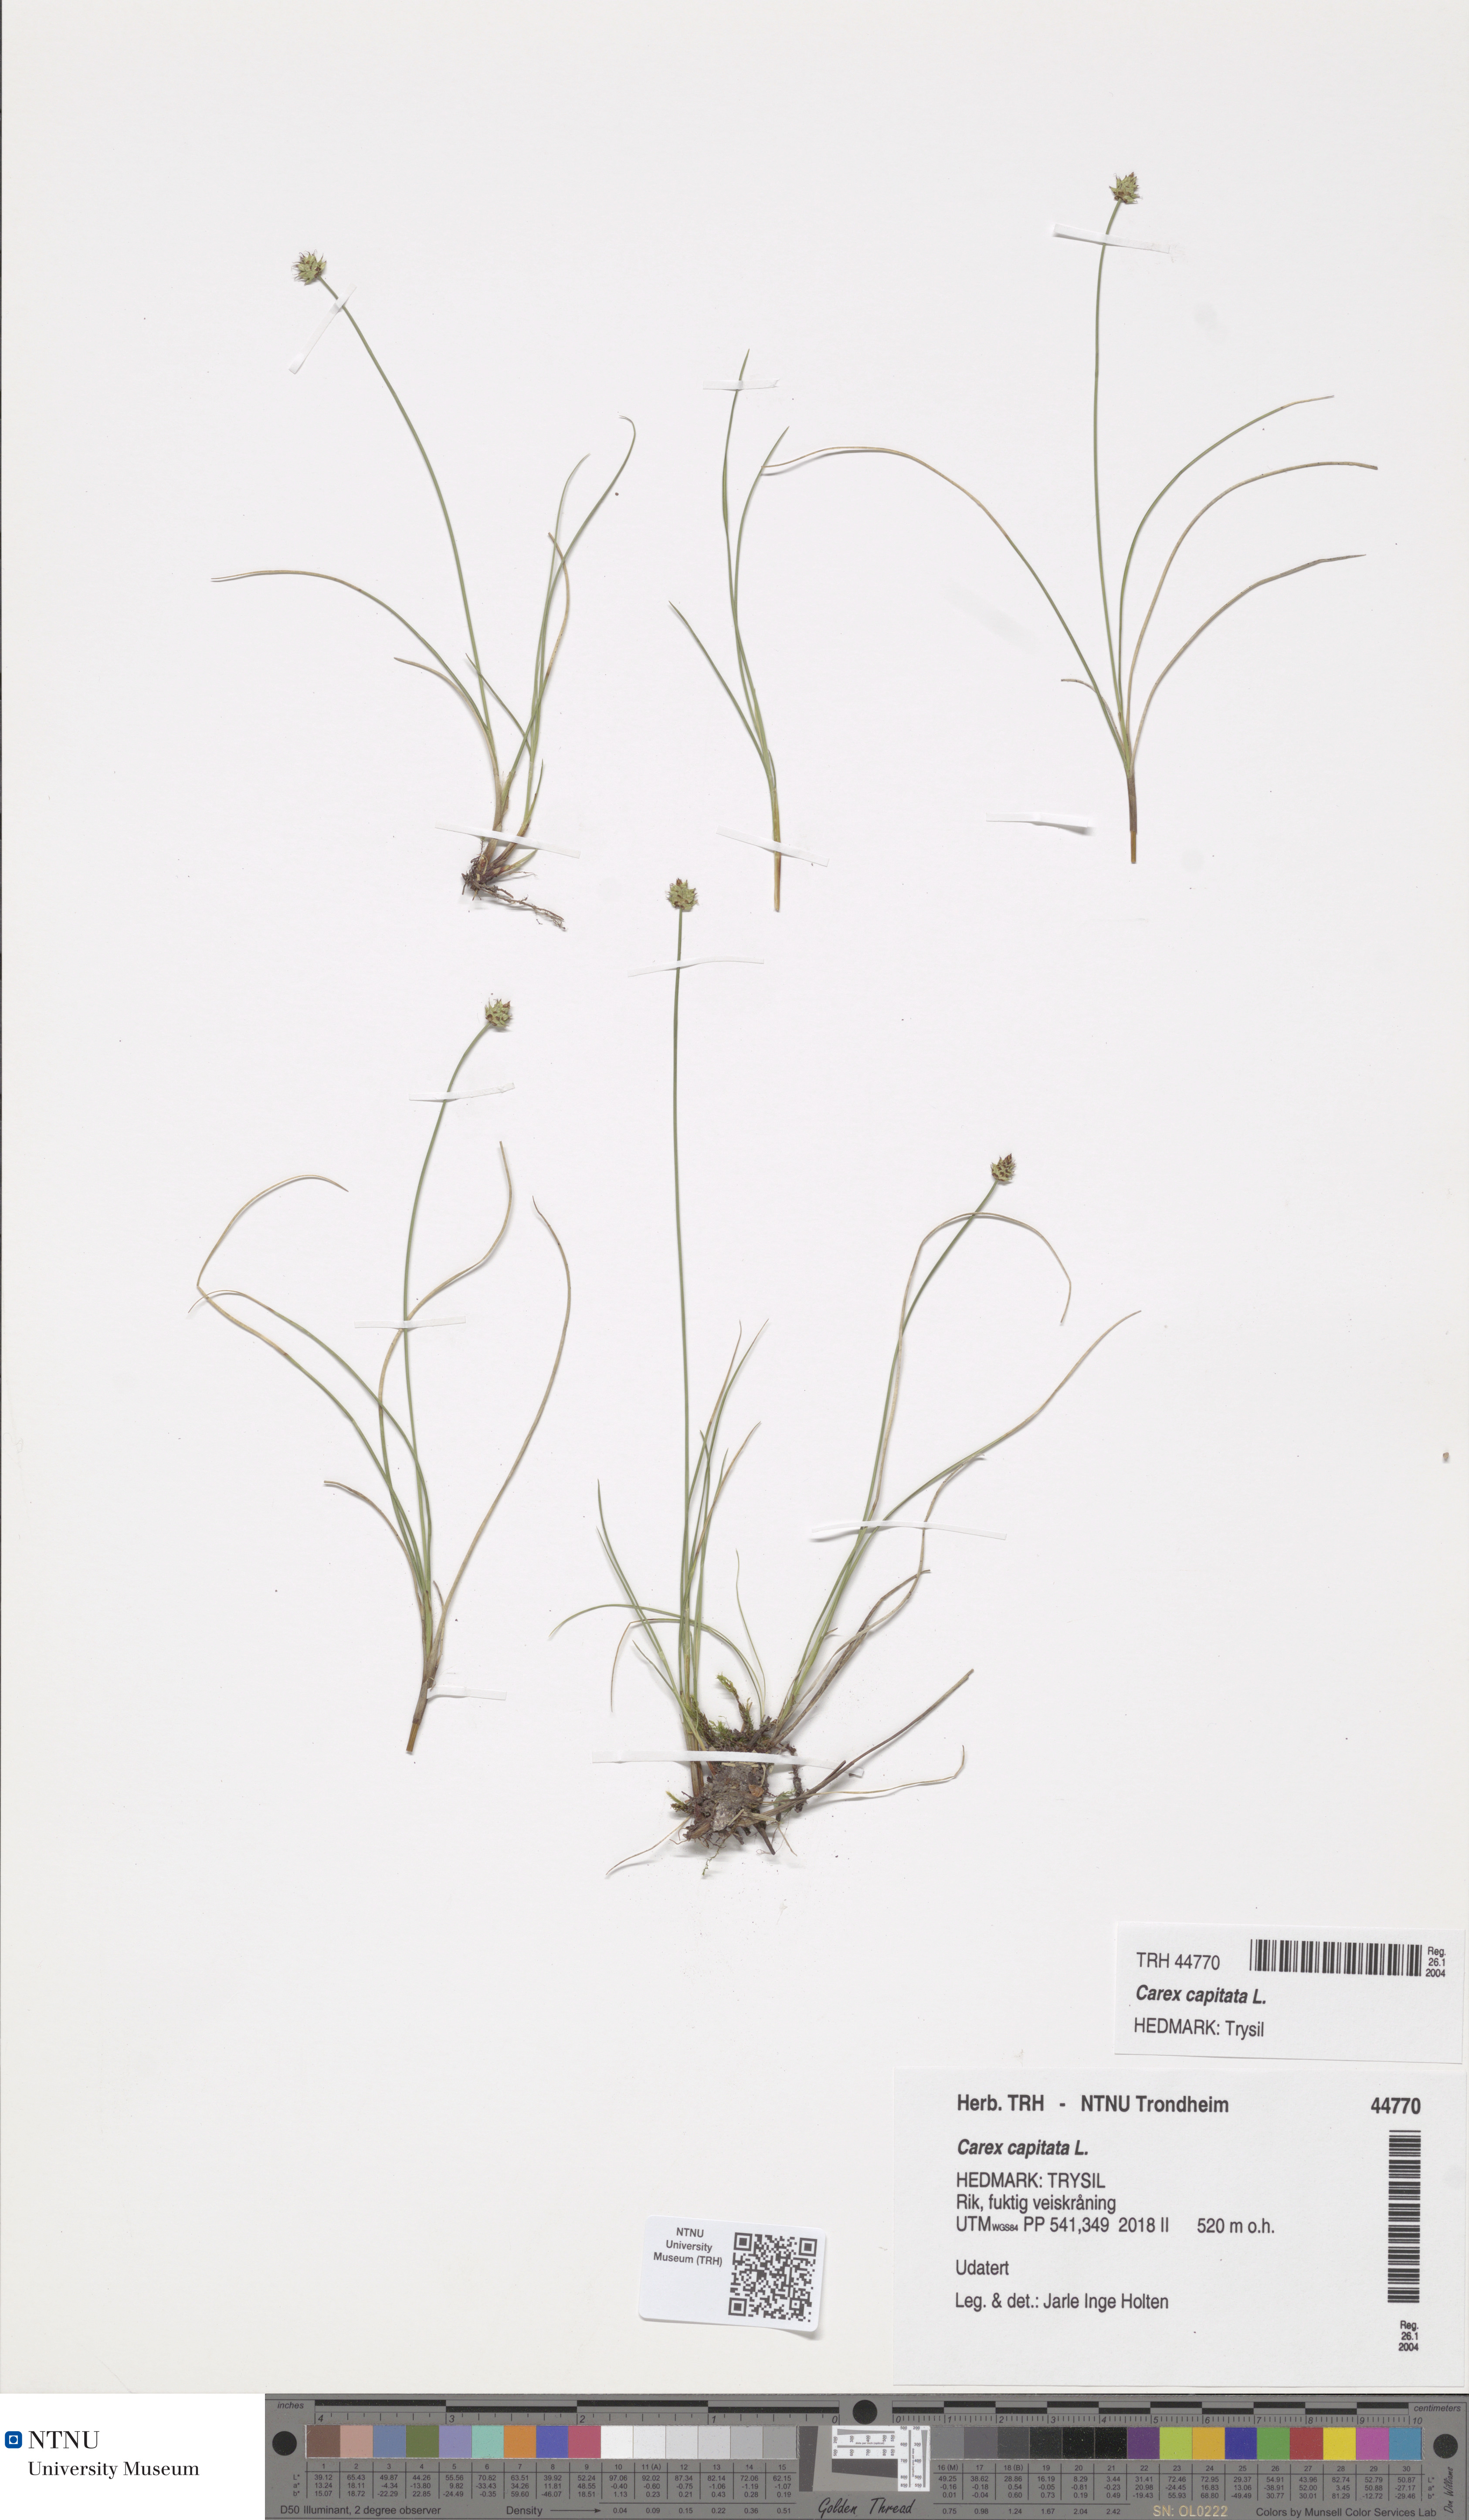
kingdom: Plantae
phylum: Tracheophyta
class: Liliopsida
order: Poales
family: Cyperaceae
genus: Carex
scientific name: Carex capitata
